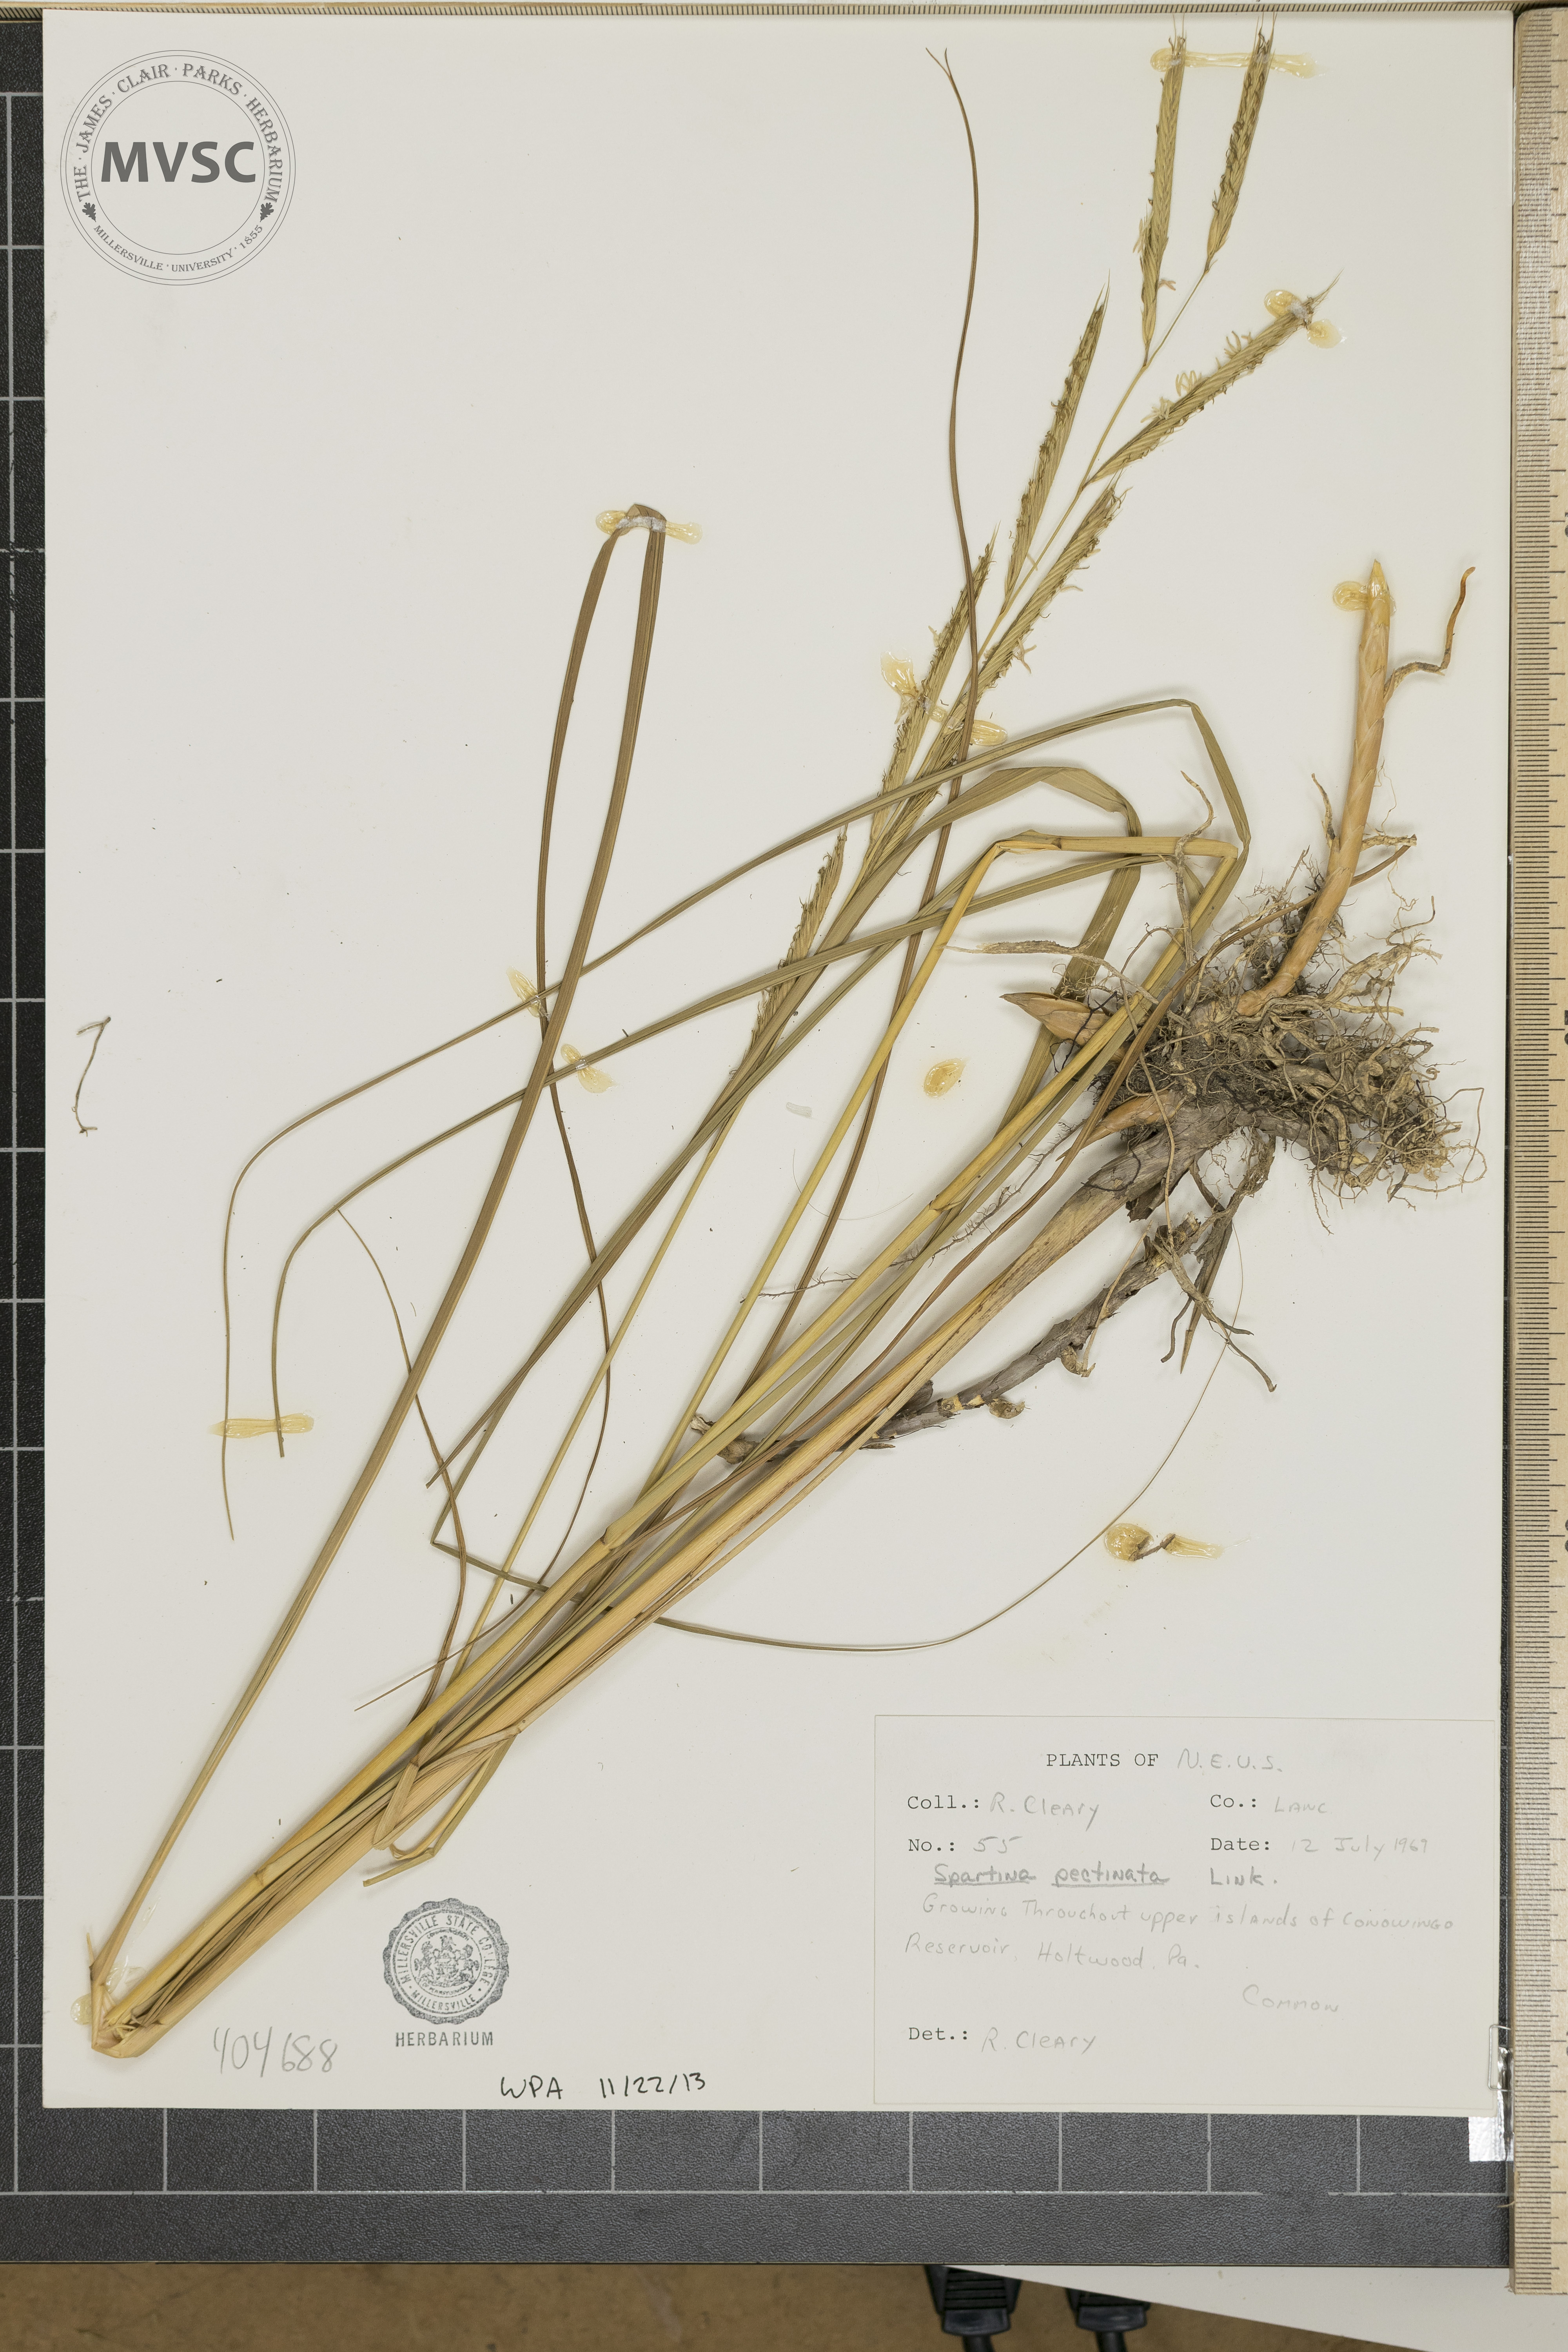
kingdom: Plantae
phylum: Tracheophyta
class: Liliopsida
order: Poales
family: Poaceae
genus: Sporobolus
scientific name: Sporobolus michauxianus
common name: Freshwater cordgrass
